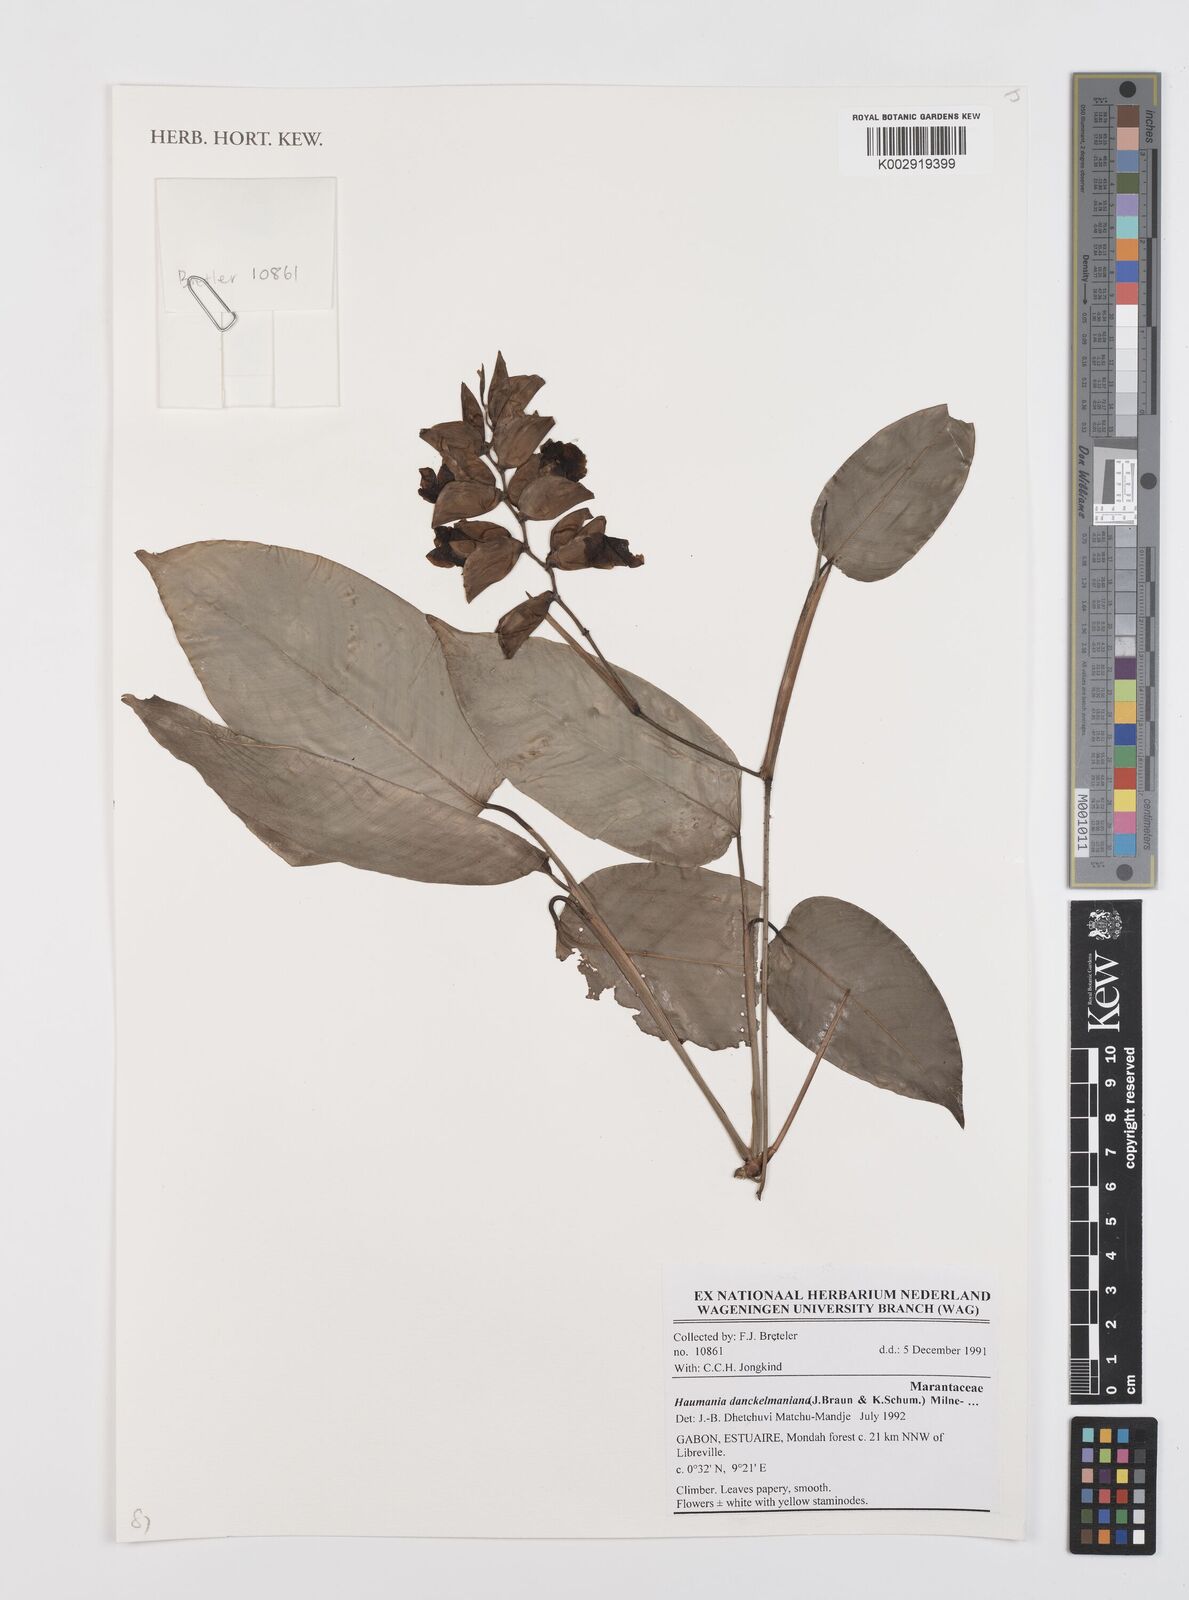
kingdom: Plantae
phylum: Tracheophyta
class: Liliopsida
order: Zingiberales
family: Marantaceae
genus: Haumania
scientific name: Haumania danckelmaniana
